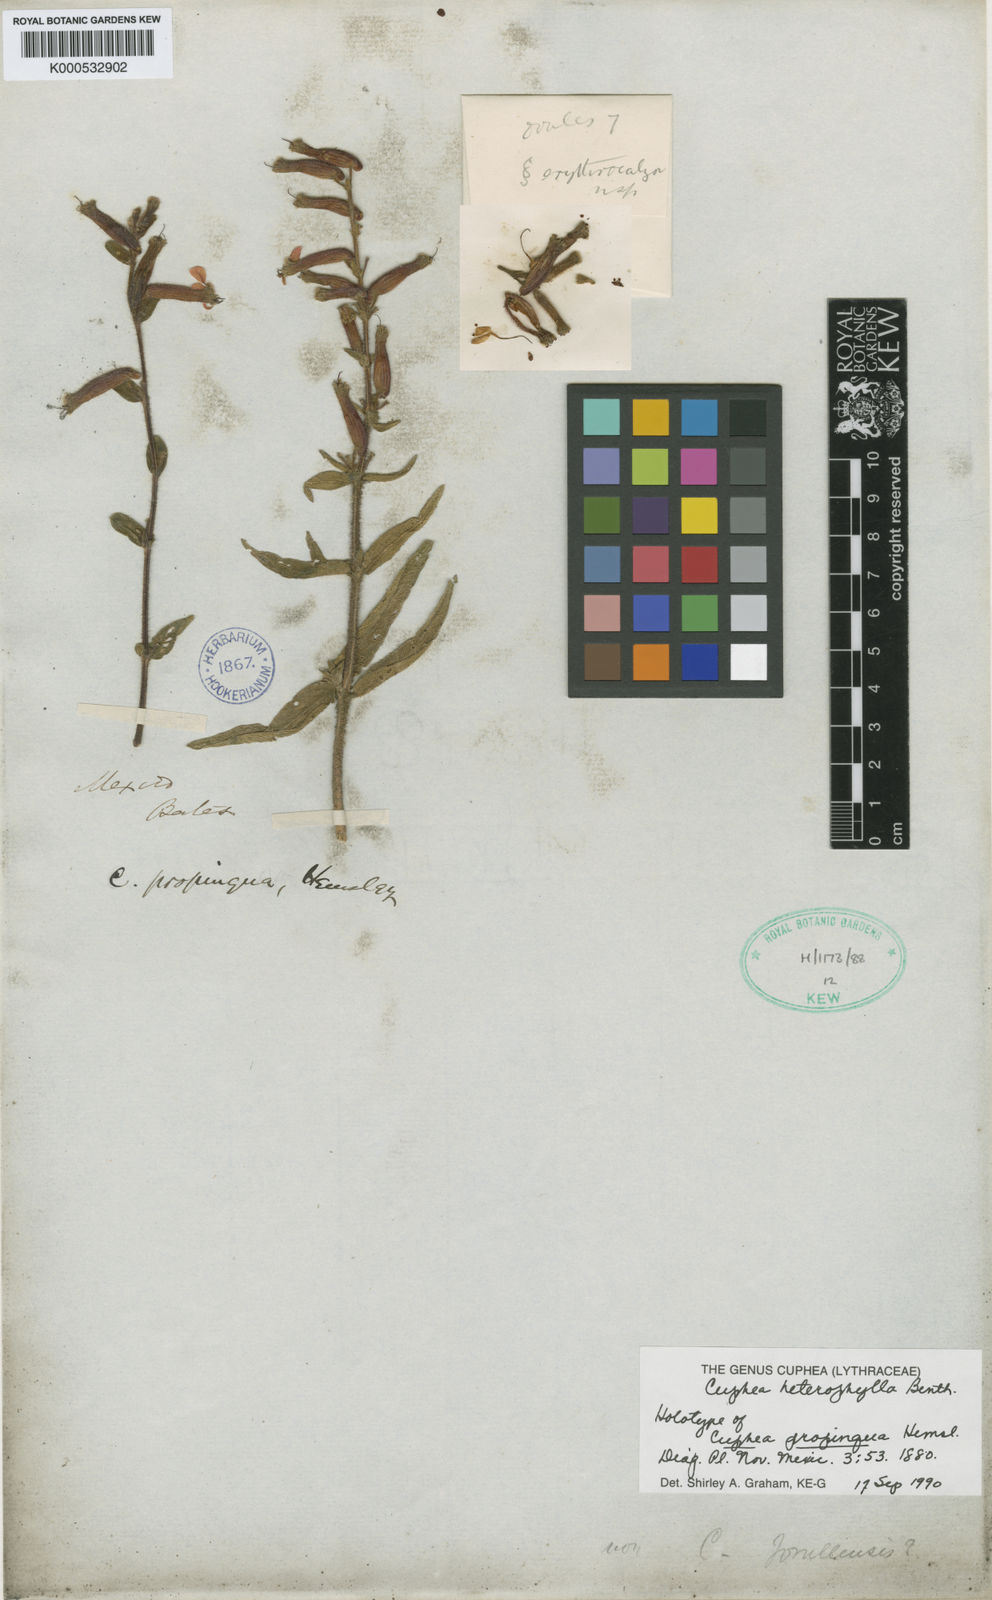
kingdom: Plantae
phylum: Tracheophyta
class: Magnoliopsida
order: Myrtales
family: Lythraceae
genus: Cuphea
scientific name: Cuphea heterophylla
